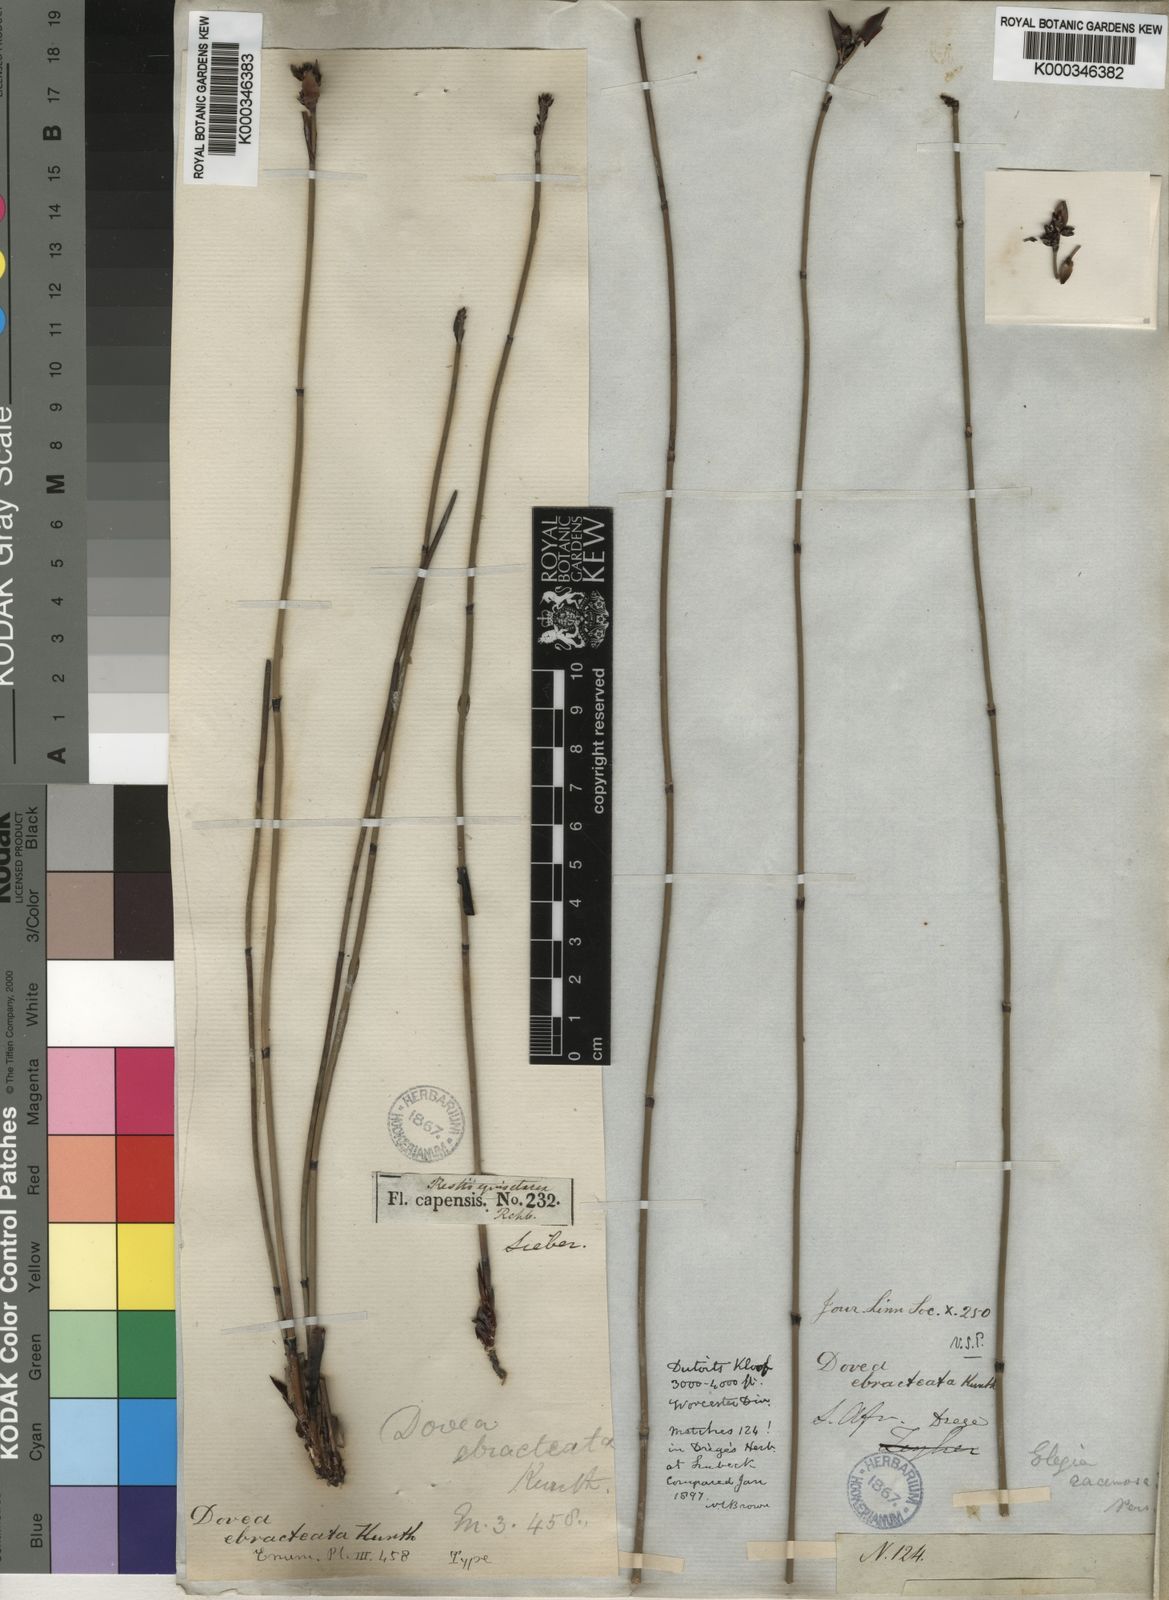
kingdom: Plantae
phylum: Tracheophyta
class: Liliopsida
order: Poales
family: Restionaceae
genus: Elegia
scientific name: Elegia ebracteata
